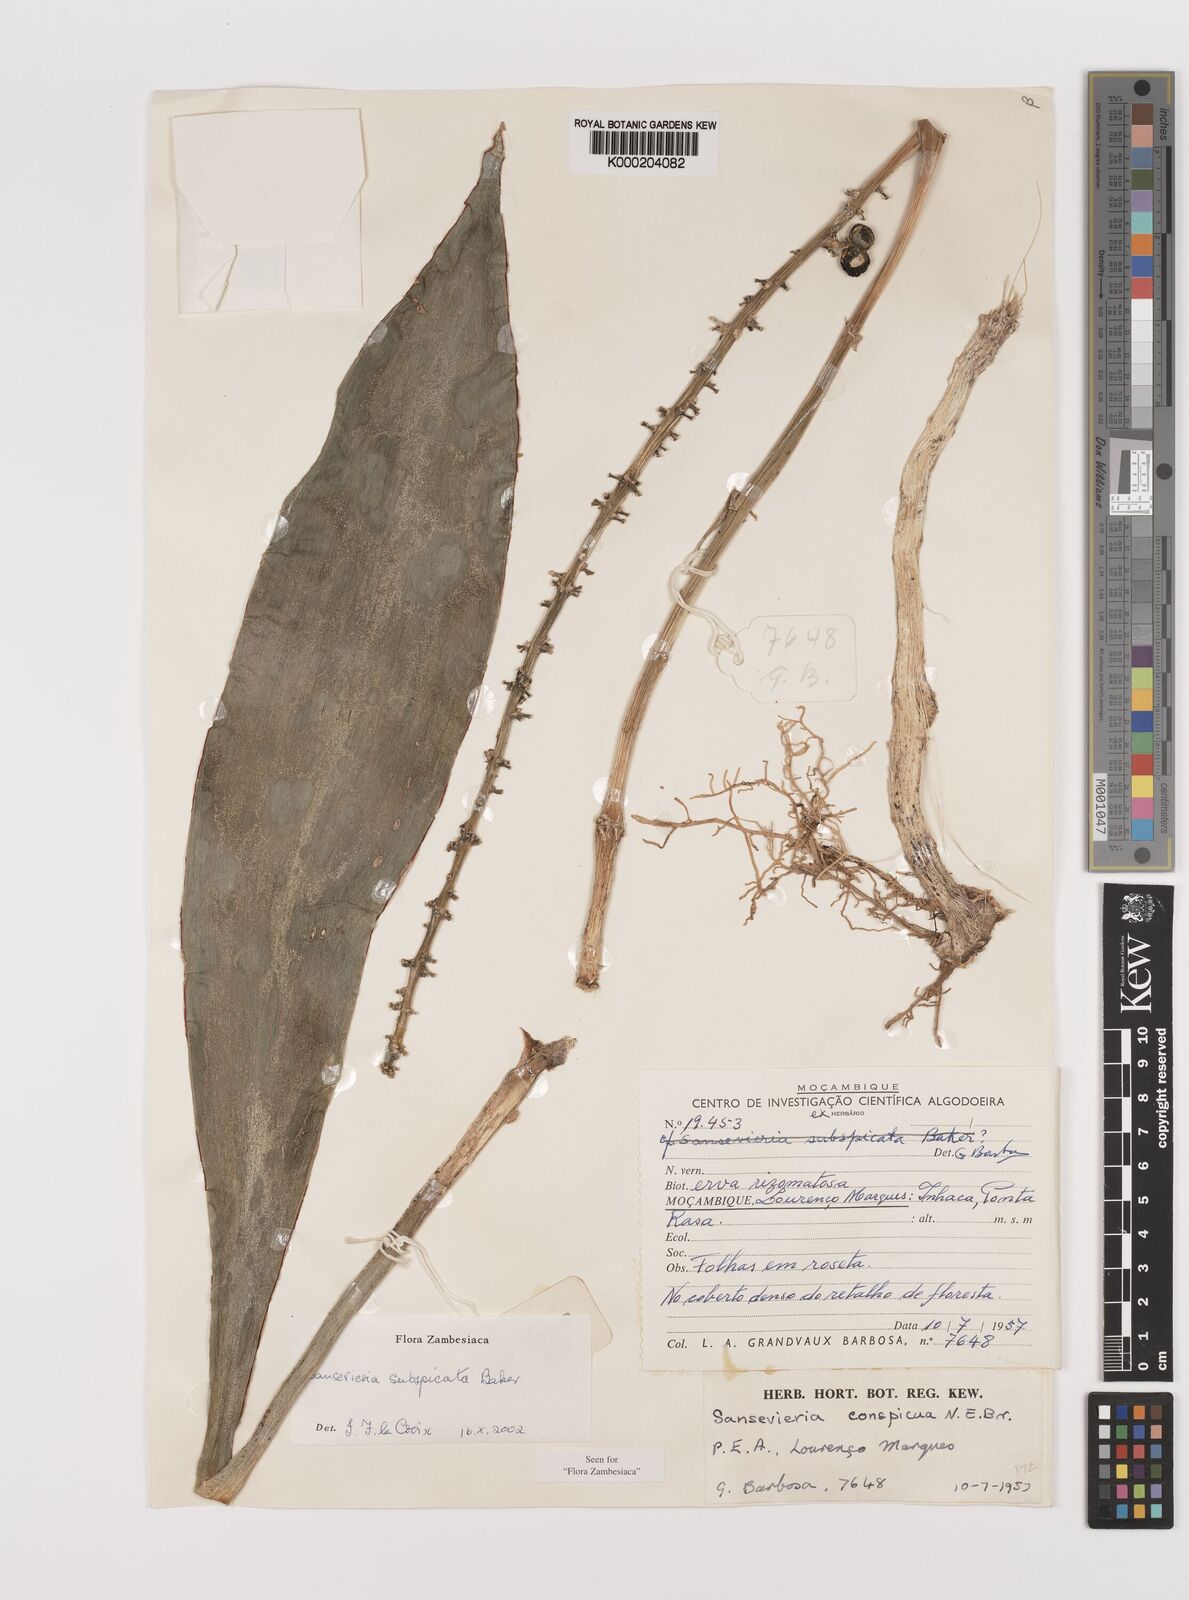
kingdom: Plantae
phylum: Tracheophyta
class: Liliopsida
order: Asparagales
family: Asparagaceae
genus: Dracaena
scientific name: Dracaena subspicata
